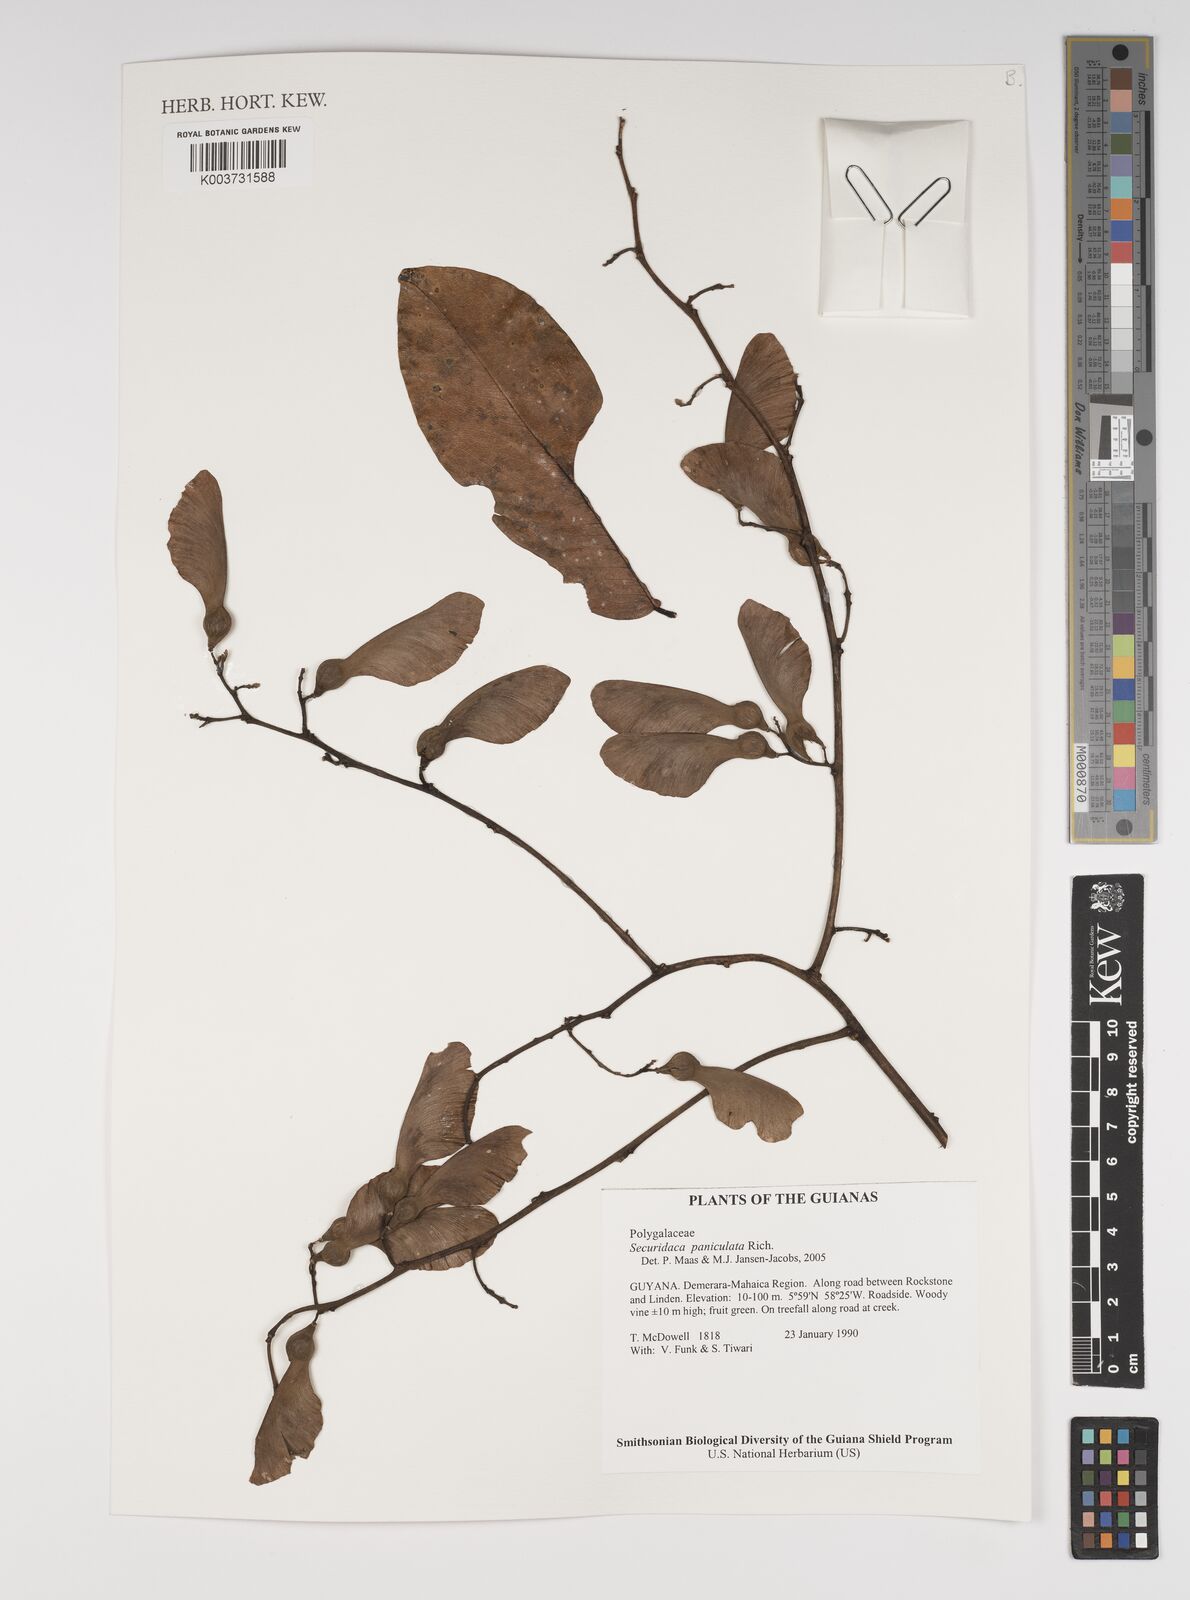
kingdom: Plantae
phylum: Tracheophyta
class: Magnoliopsida
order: Fabales
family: Polygalaceae
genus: Securidaca
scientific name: Securidaca paniculata
